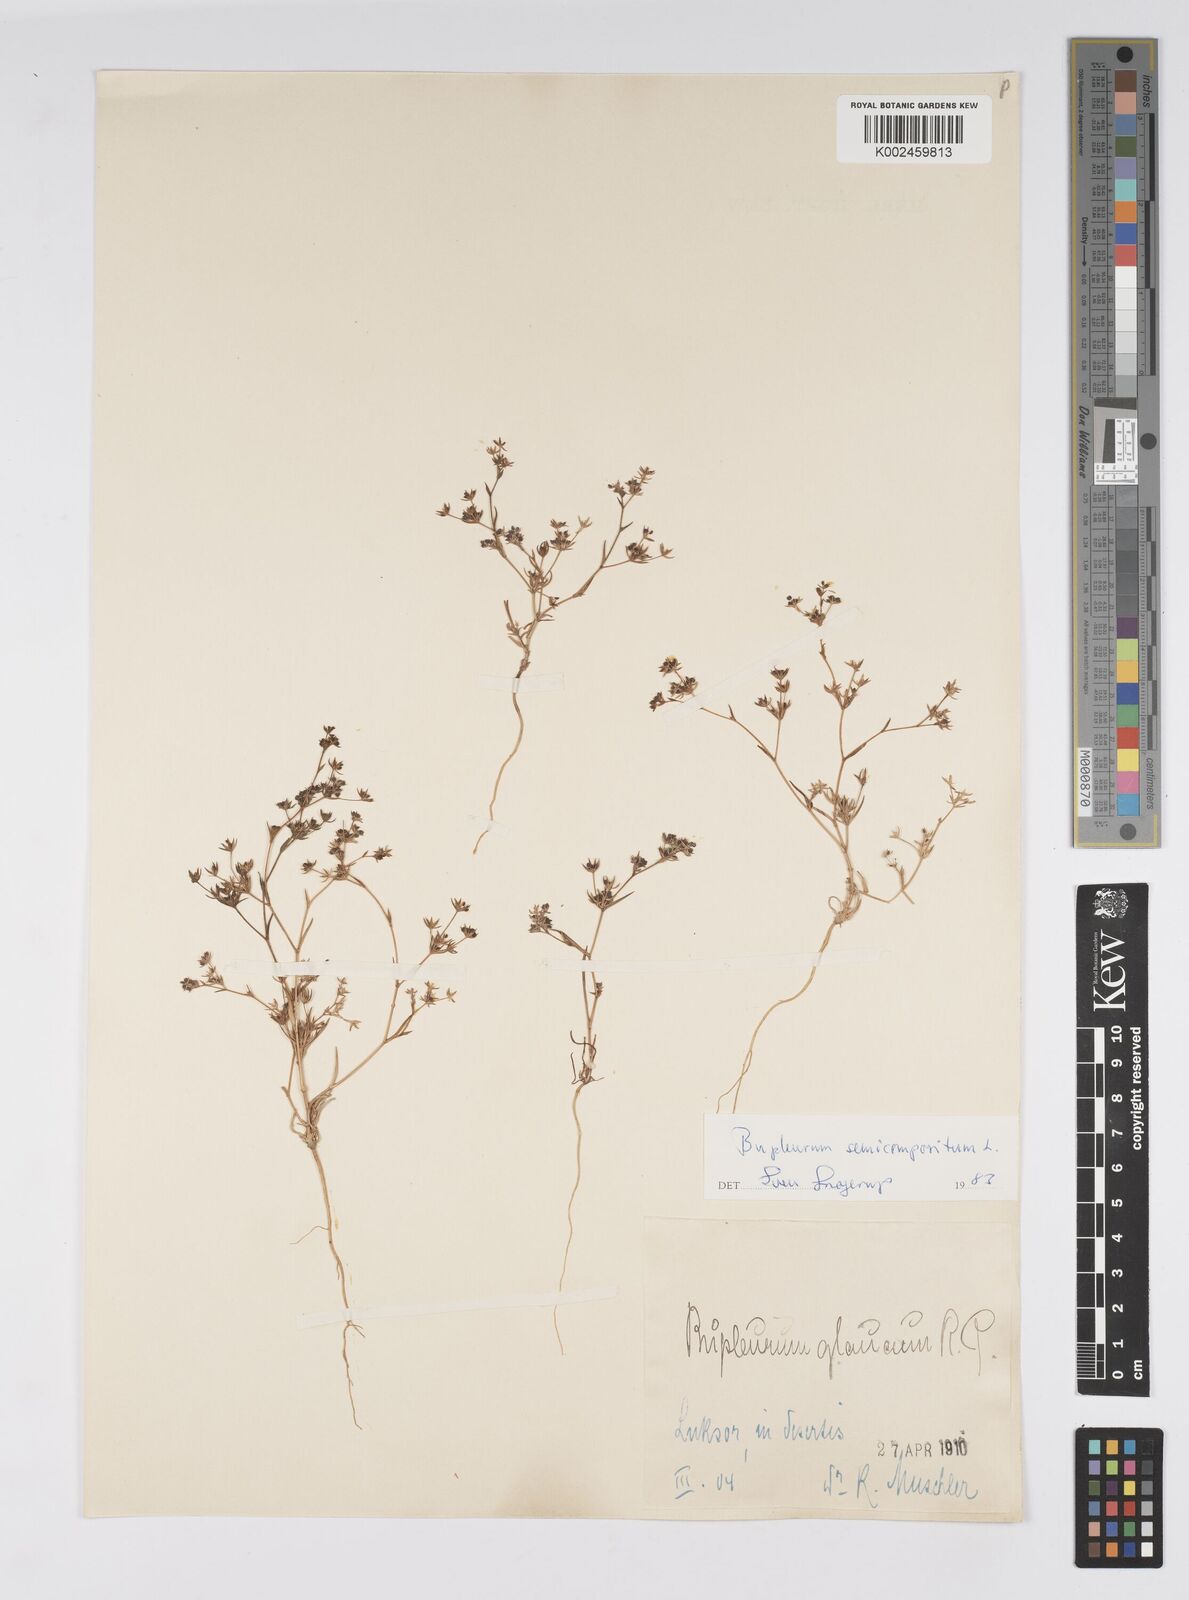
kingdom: Plantae
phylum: Tracheophyta
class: Magnoliopsida
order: Apiales
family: Apiaceae
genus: Bupleurum
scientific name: Bupleurum semicompositum
